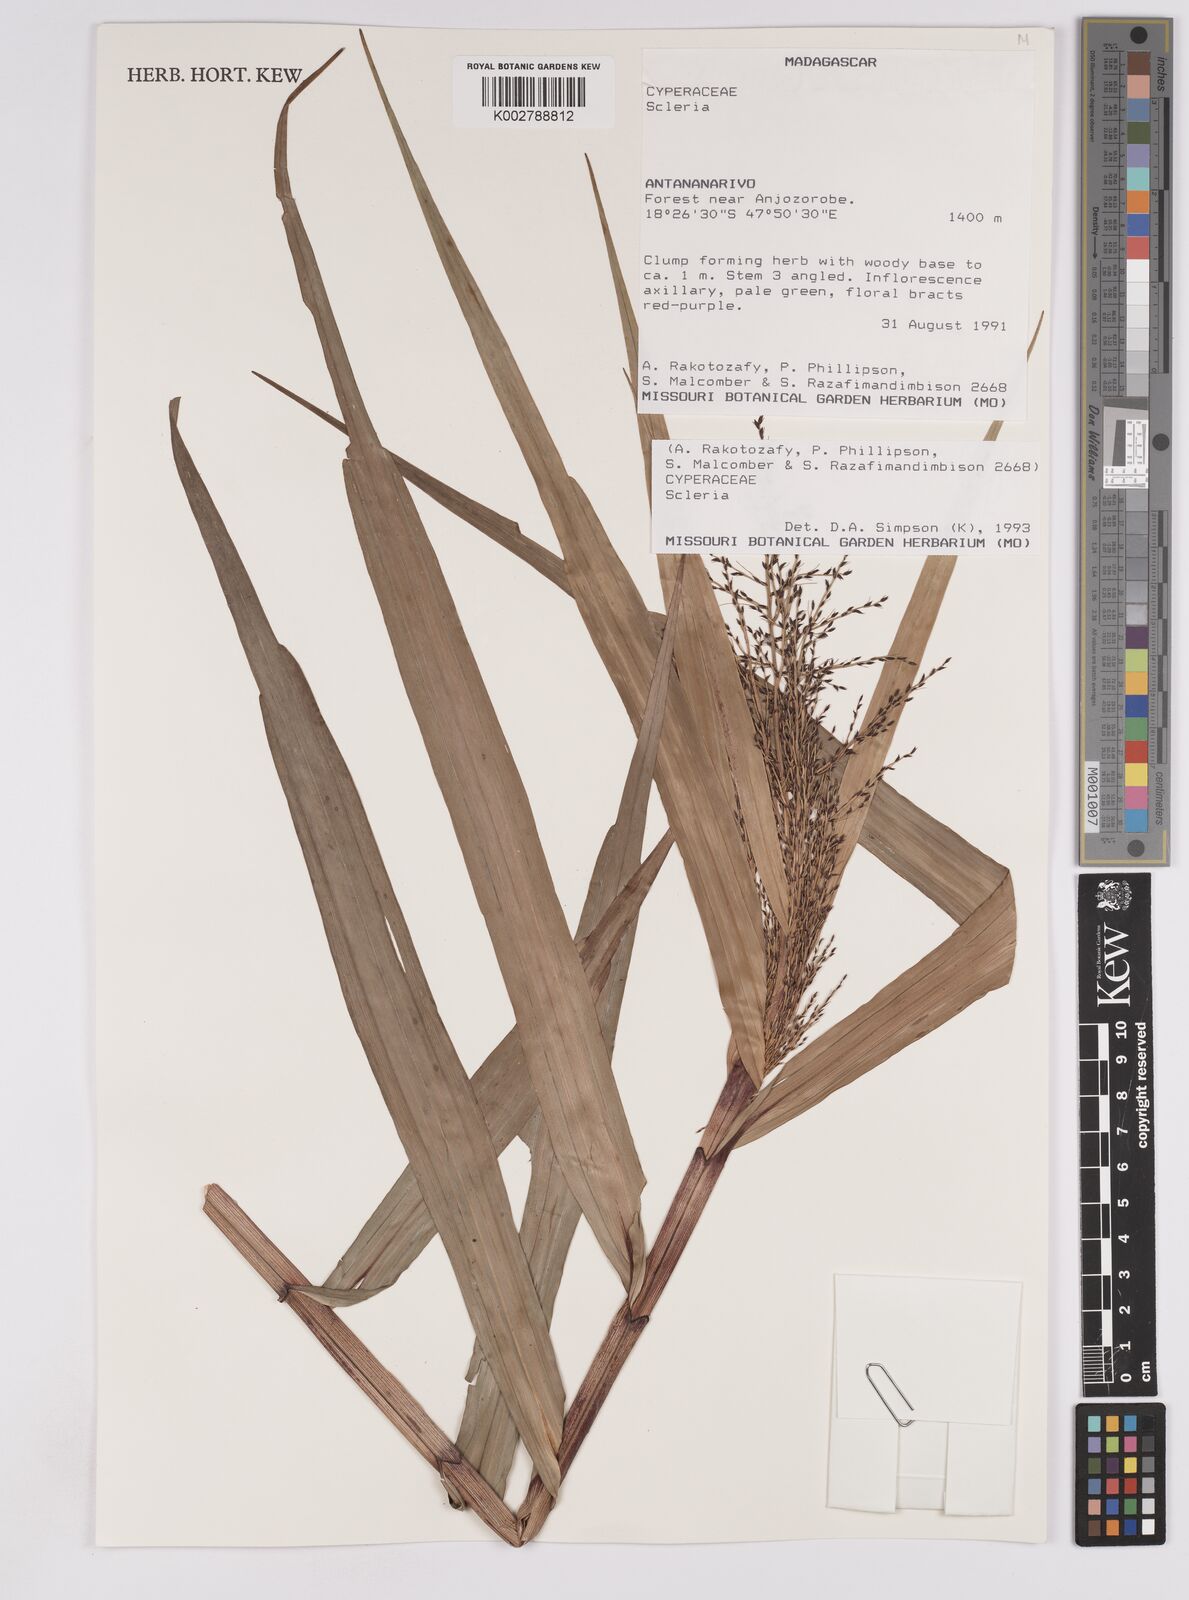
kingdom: Plantae
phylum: Tracheophyta
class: Liliopsida
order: Poales
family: Cyperaceae
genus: Scleria
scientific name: Scleria
